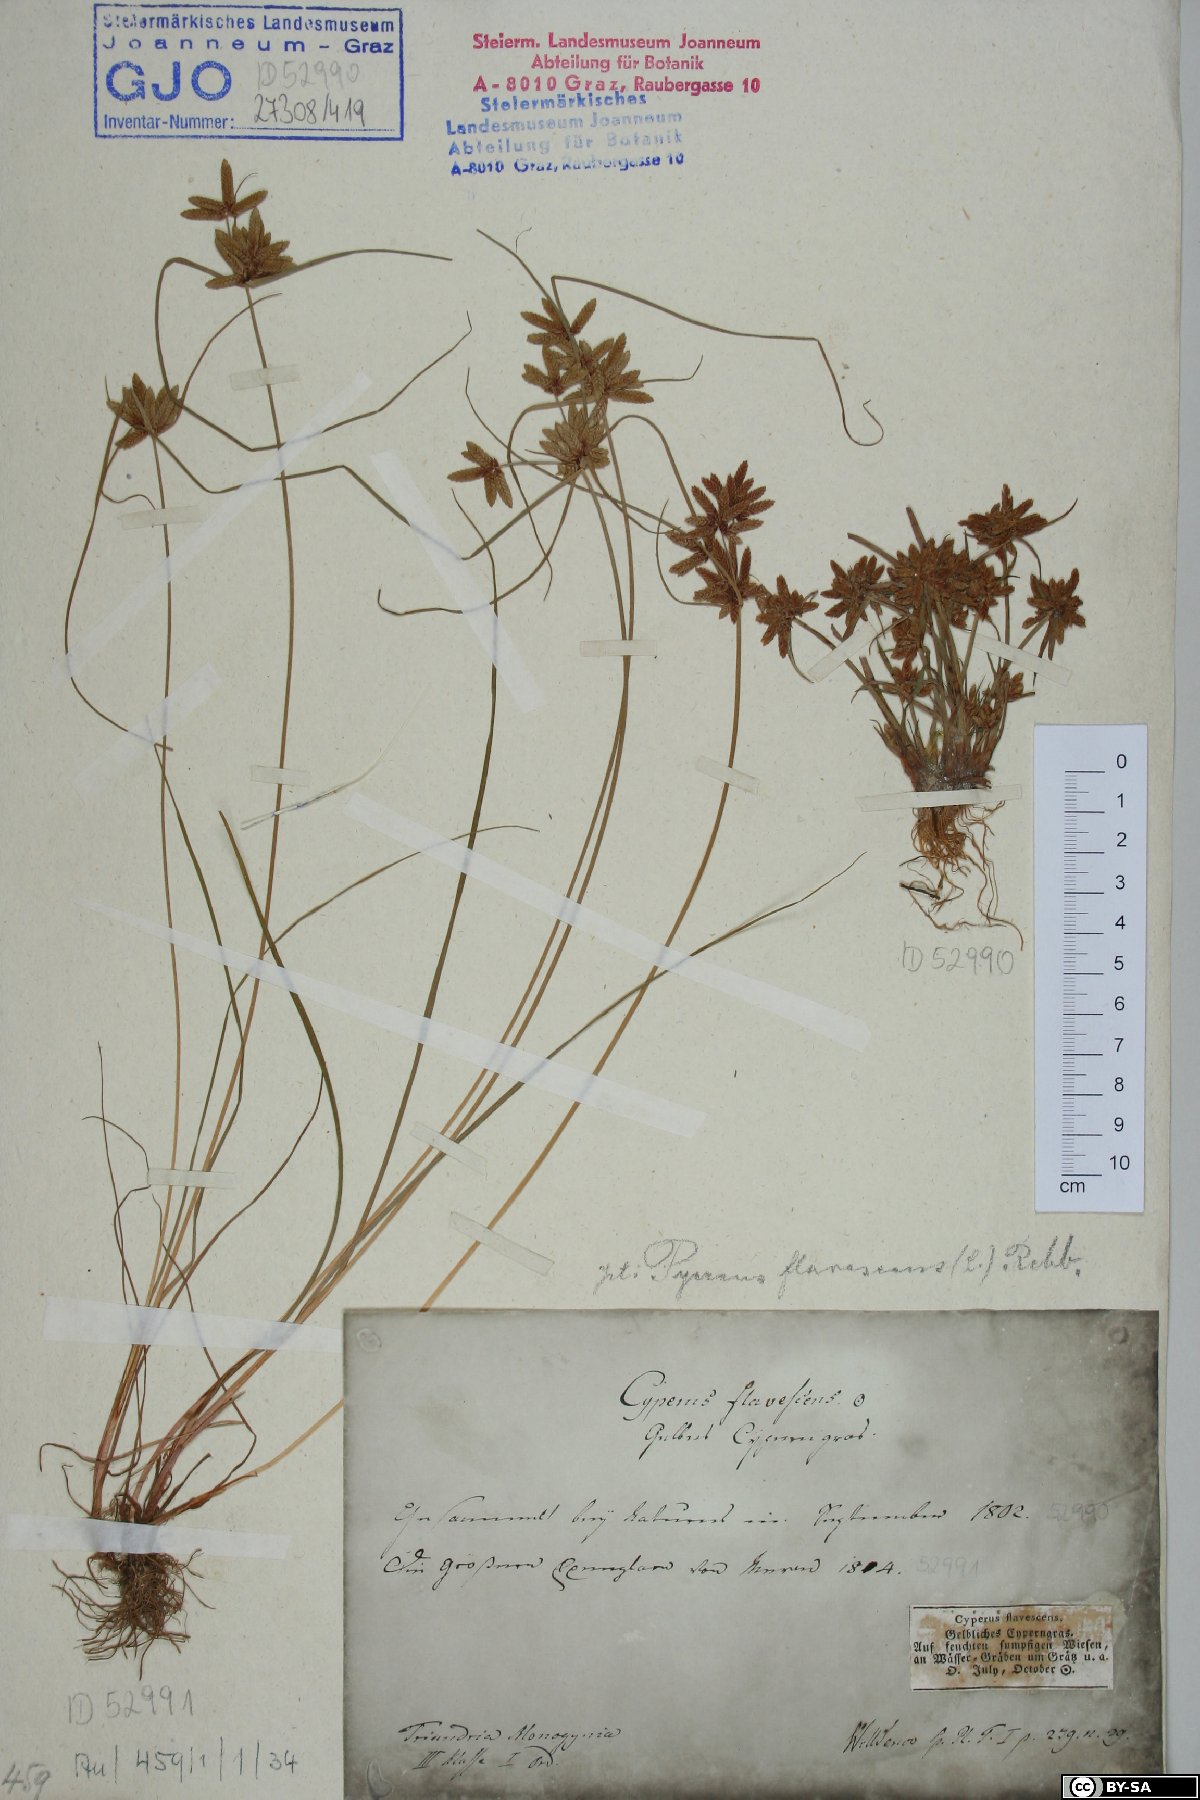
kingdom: Plantae
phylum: Tracheophyta
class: Liliopsida
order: Poales
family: Cyperaceae
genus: Cyperus
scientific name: Cyperus flavescens
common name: Yellow galingale
